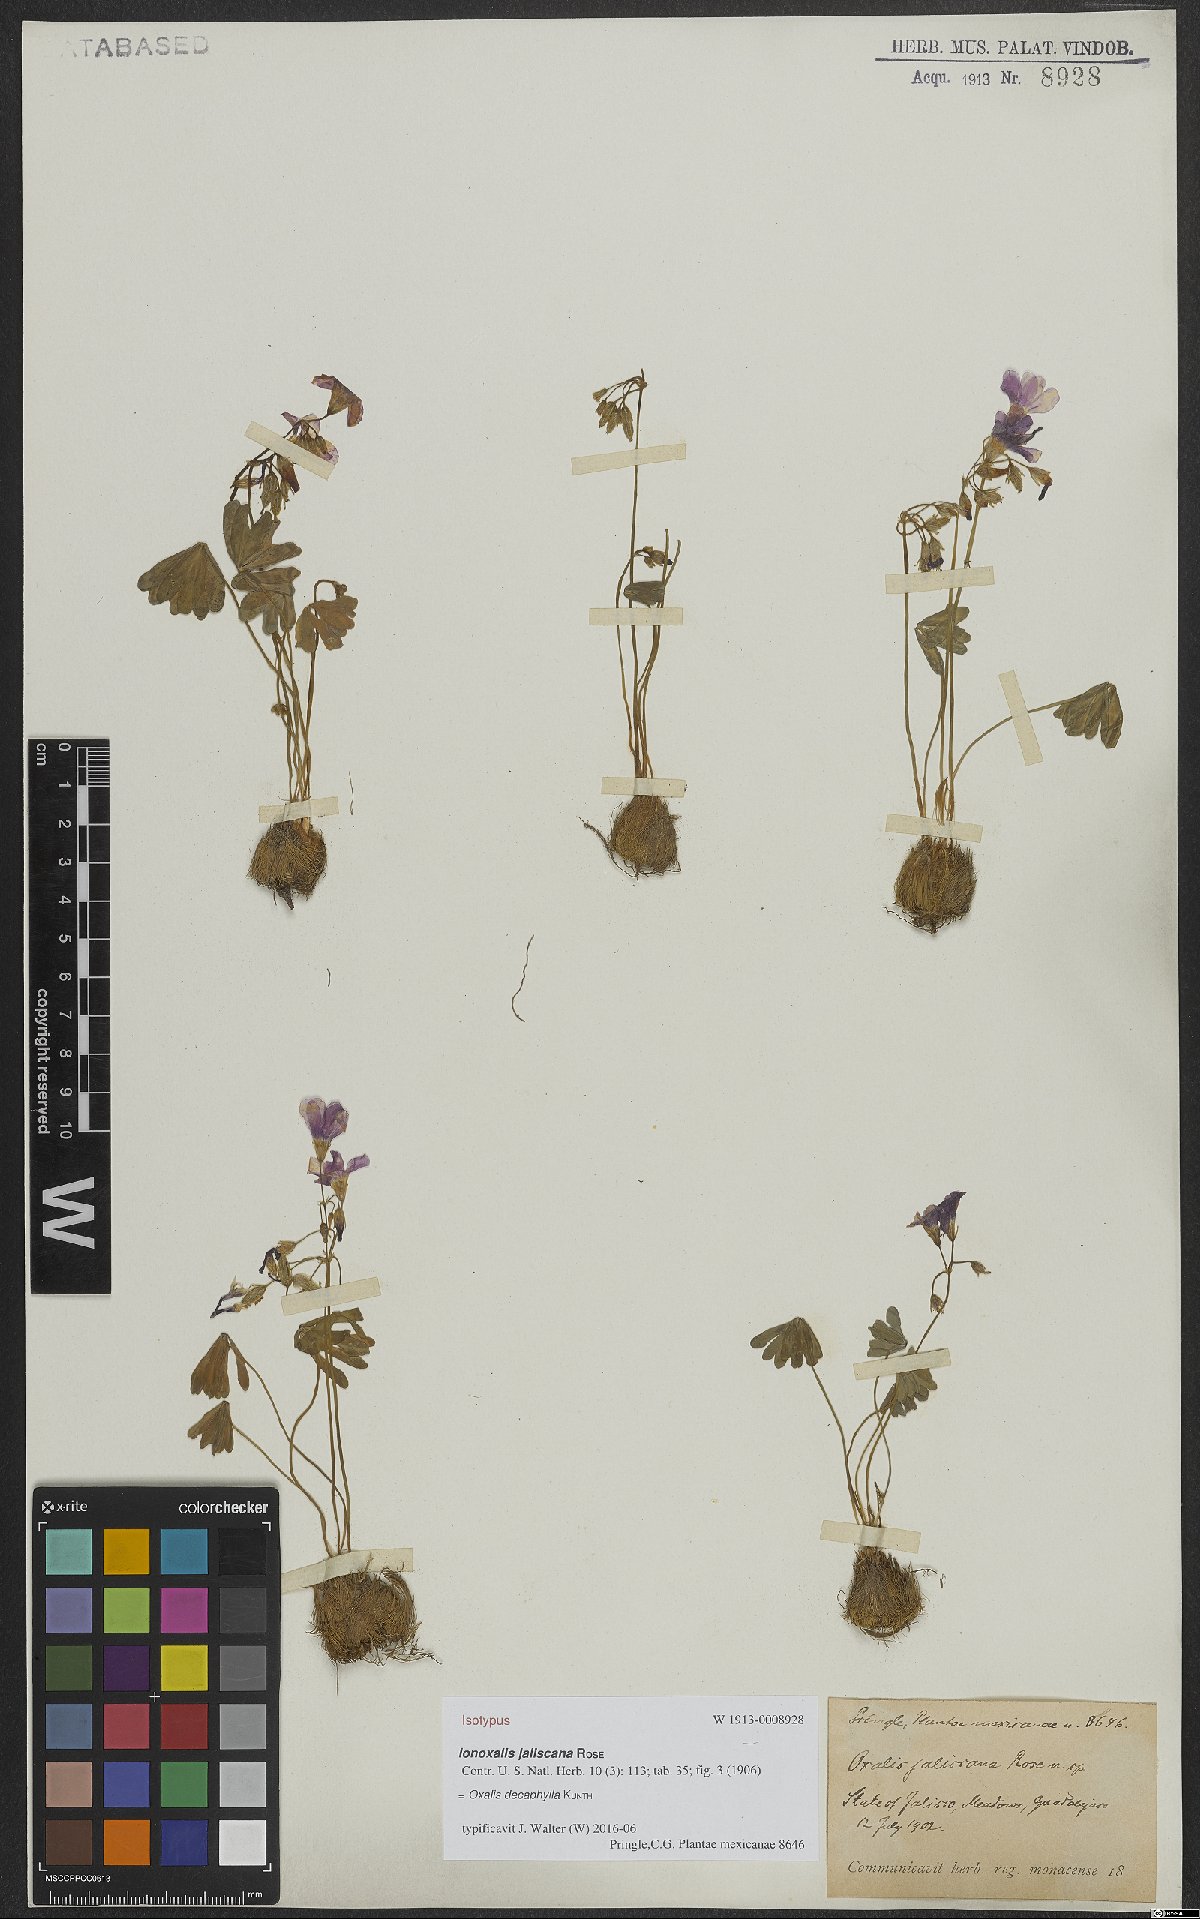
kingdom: Plantae
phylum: Tracheophyta
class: Magnoliopsida
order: Oxalidales
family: Oxalidaceae
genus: Oxalis
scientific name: Oxalis decaphylla
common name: Ten-leaved pink-sorrel
